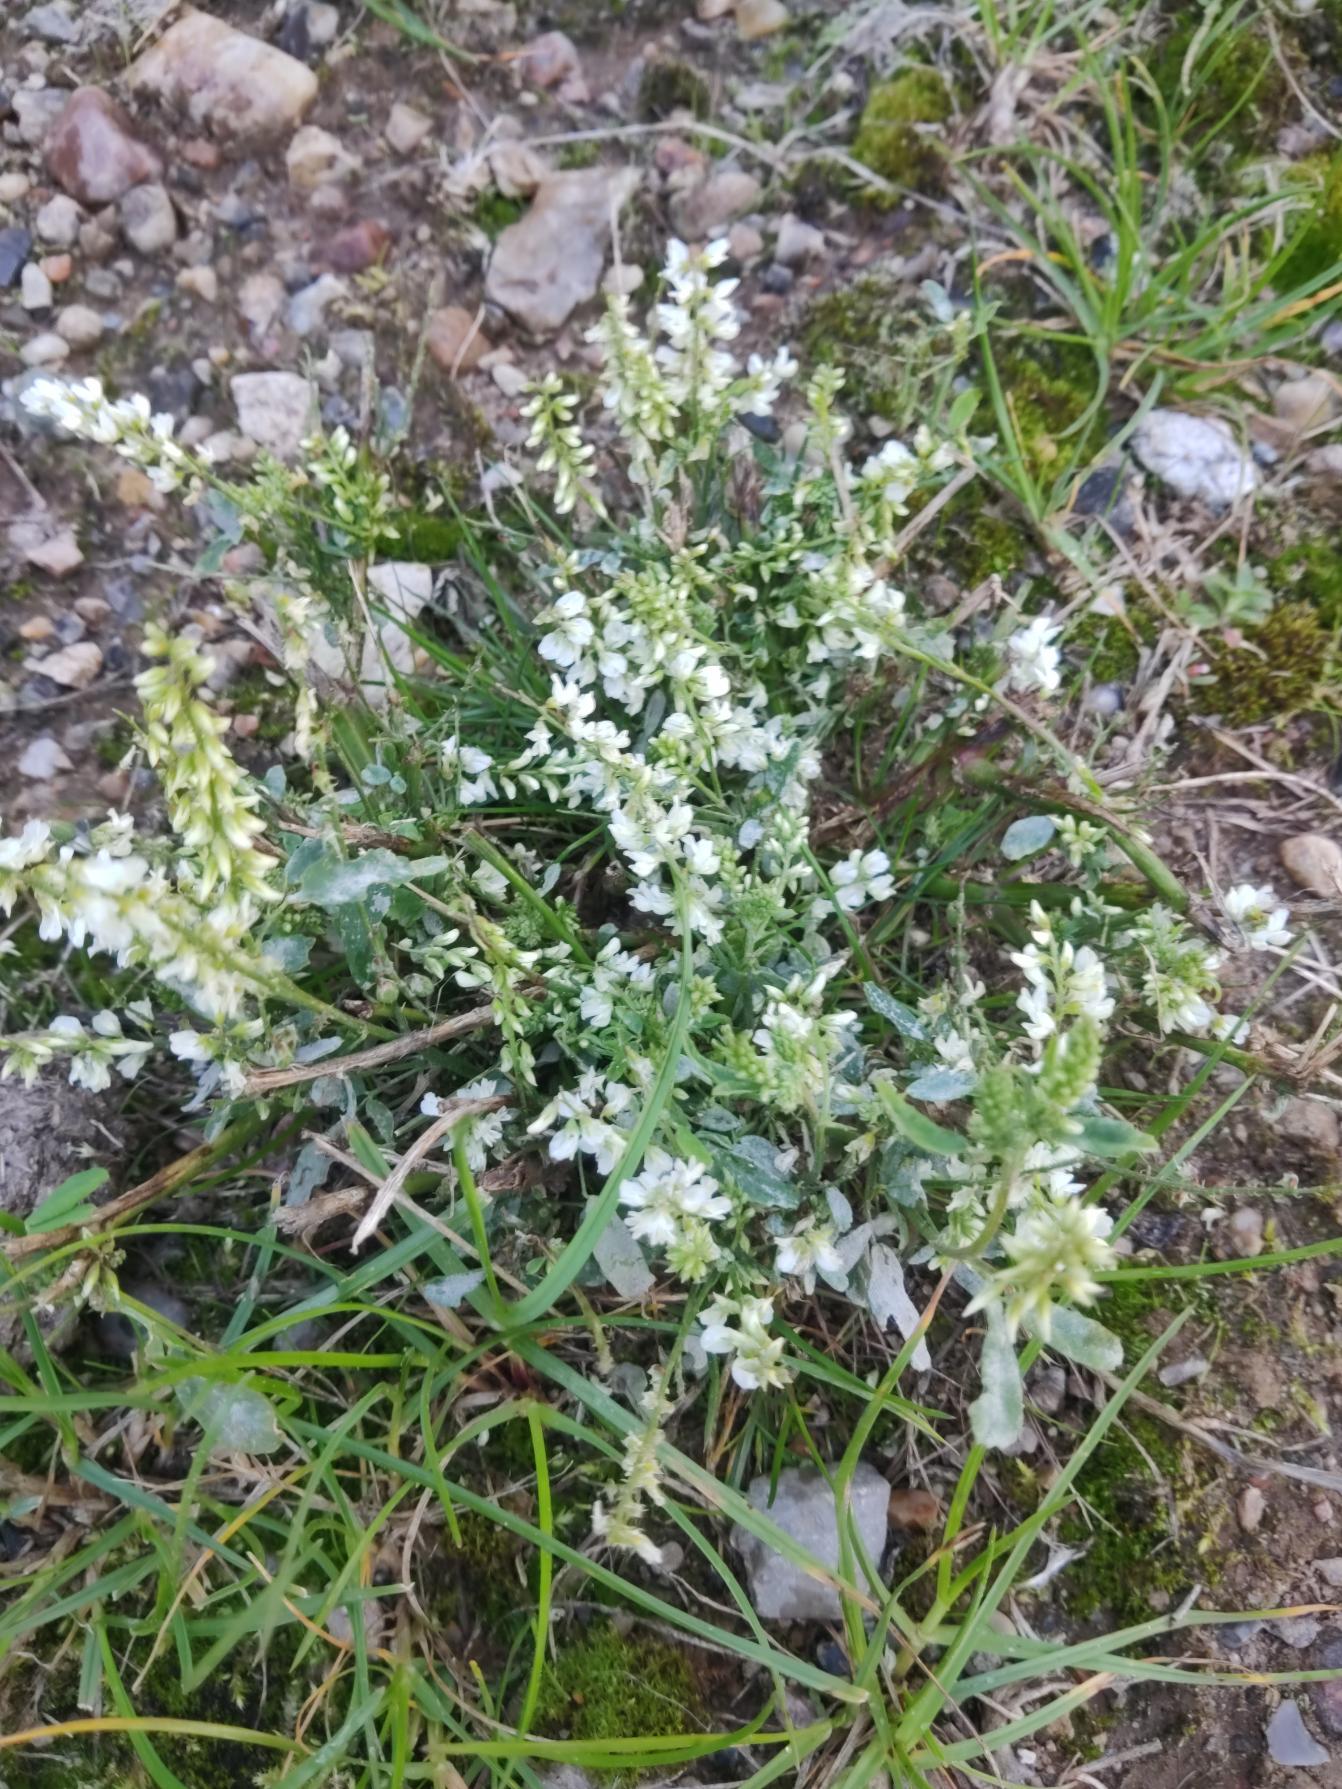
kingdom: Plantae
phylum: Tracheophyta
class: Magnoliopsida
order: Fabales
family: Fabaceae
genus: Melilotus
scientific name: Melilotus albus
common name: Hvid stenkløver
